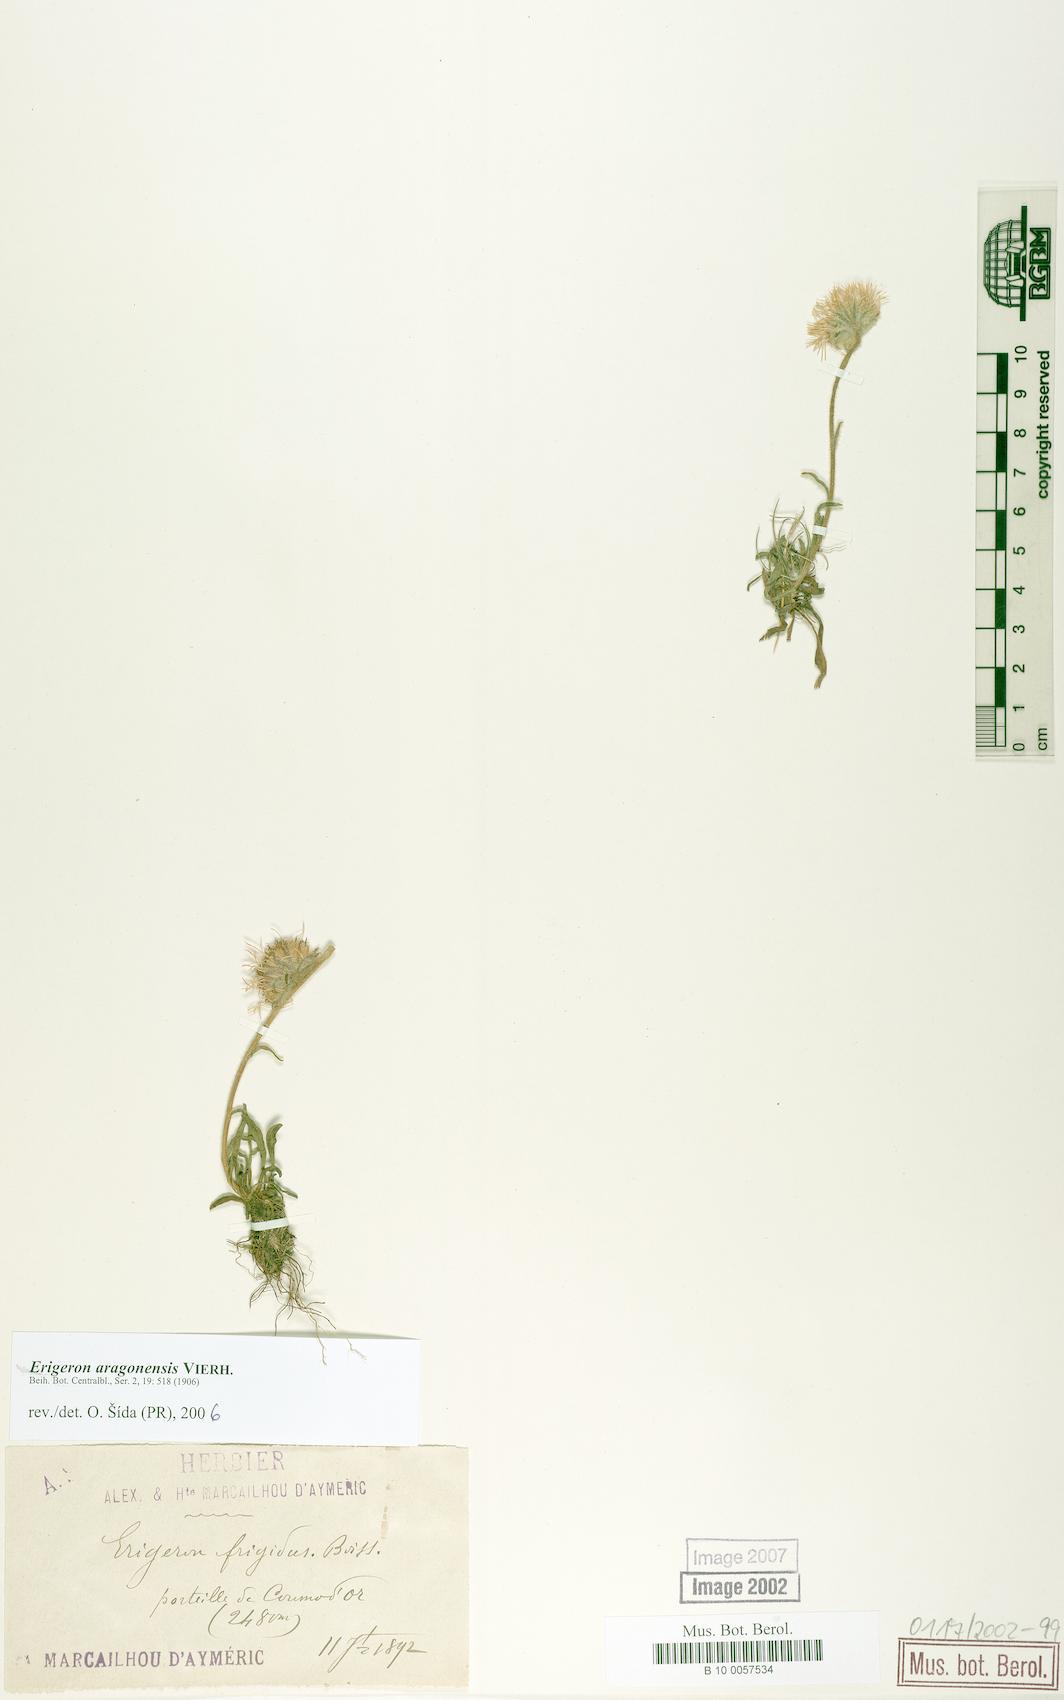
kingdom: Plantae
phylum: Tracheophyta
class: Magnoliopsida
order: Asterales
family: Asteraceae
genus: Erigeron
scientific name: Erigeron aragonensis
